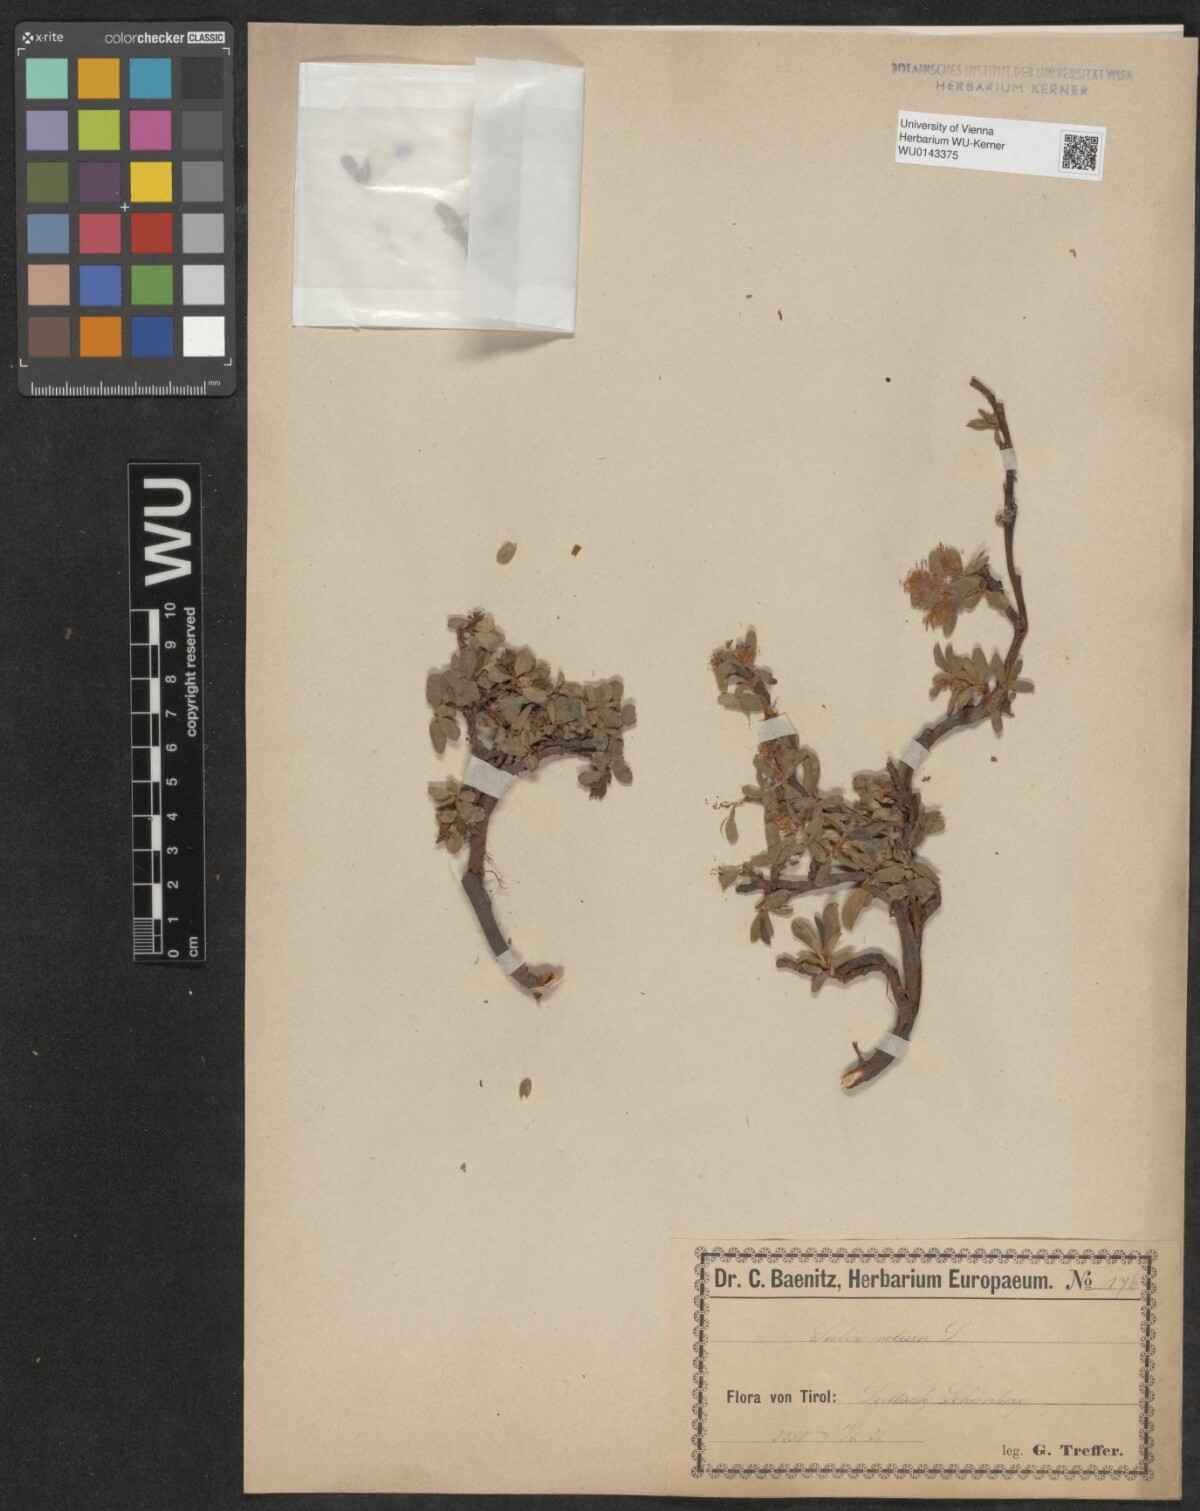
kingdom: Plantae
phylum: Tracheophyta
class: Magnoliopsida
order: Malpighiales
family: Salicaceae
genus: Salix
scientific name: Salix retusa
